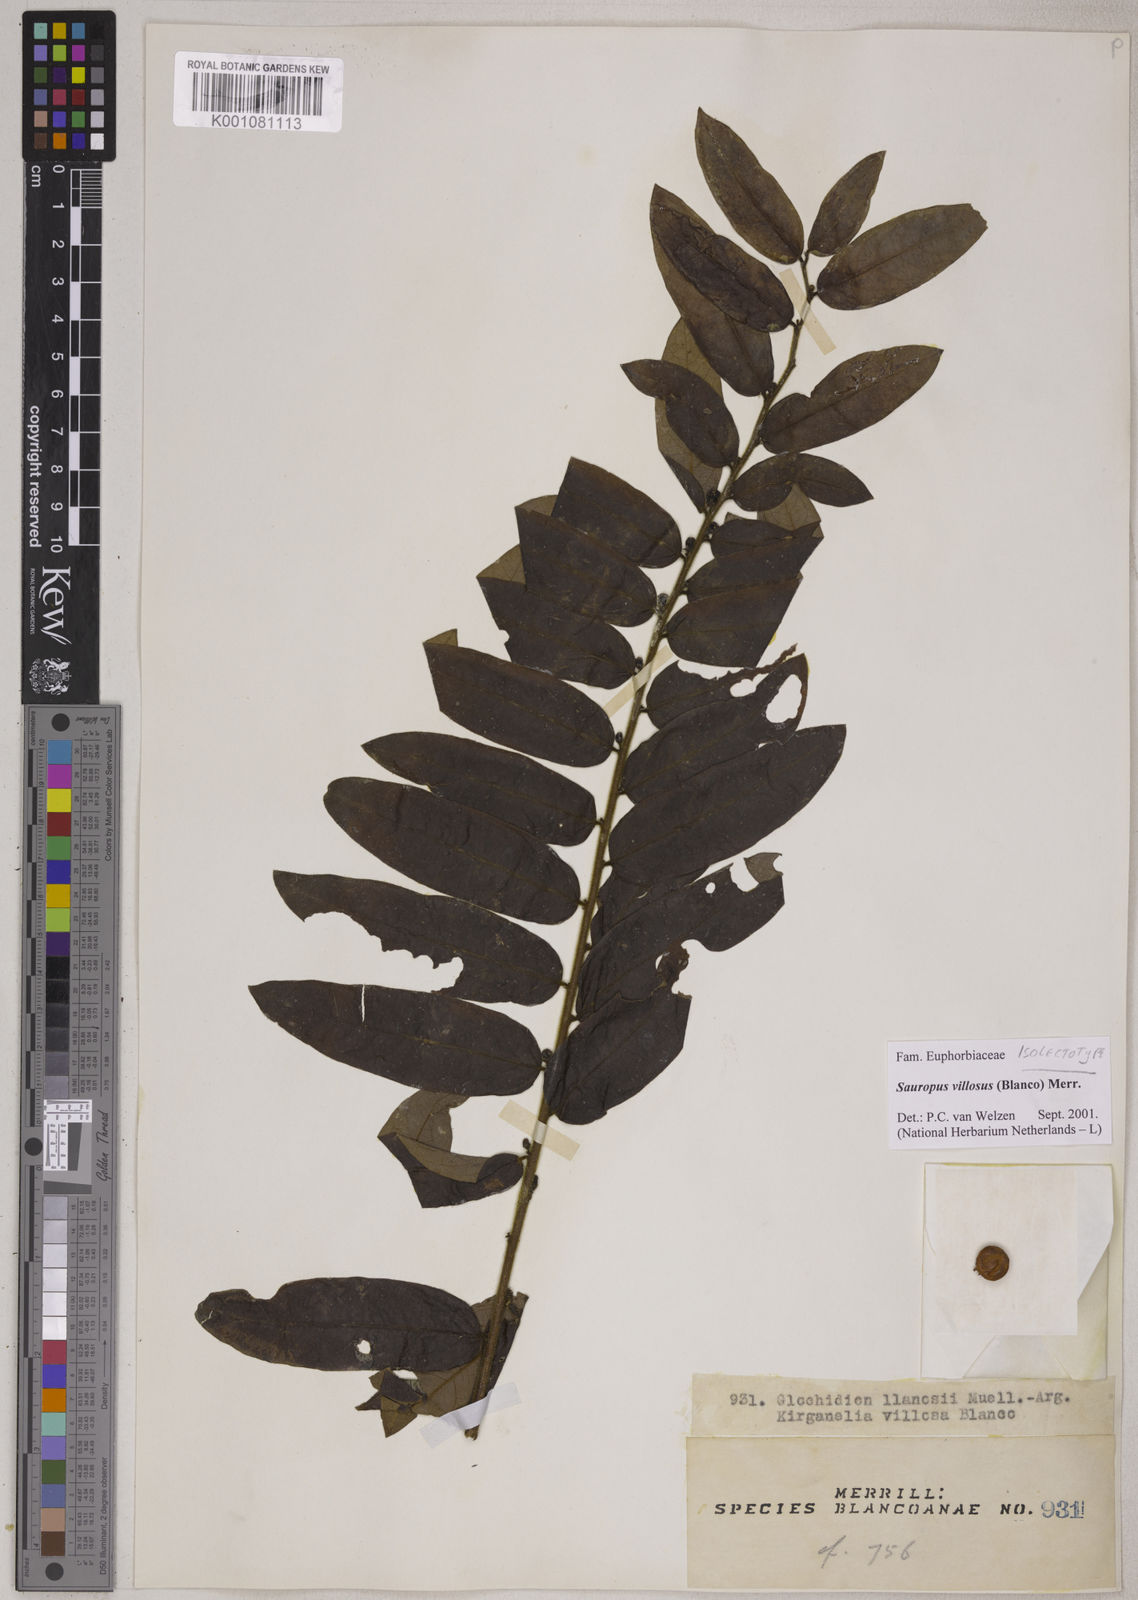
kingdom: Plantae
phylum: Tracheophyta
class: Magnoliopsida
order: Malpighiales
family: Phyllanthaceae
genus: Breynia
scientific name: Breynia villosa
